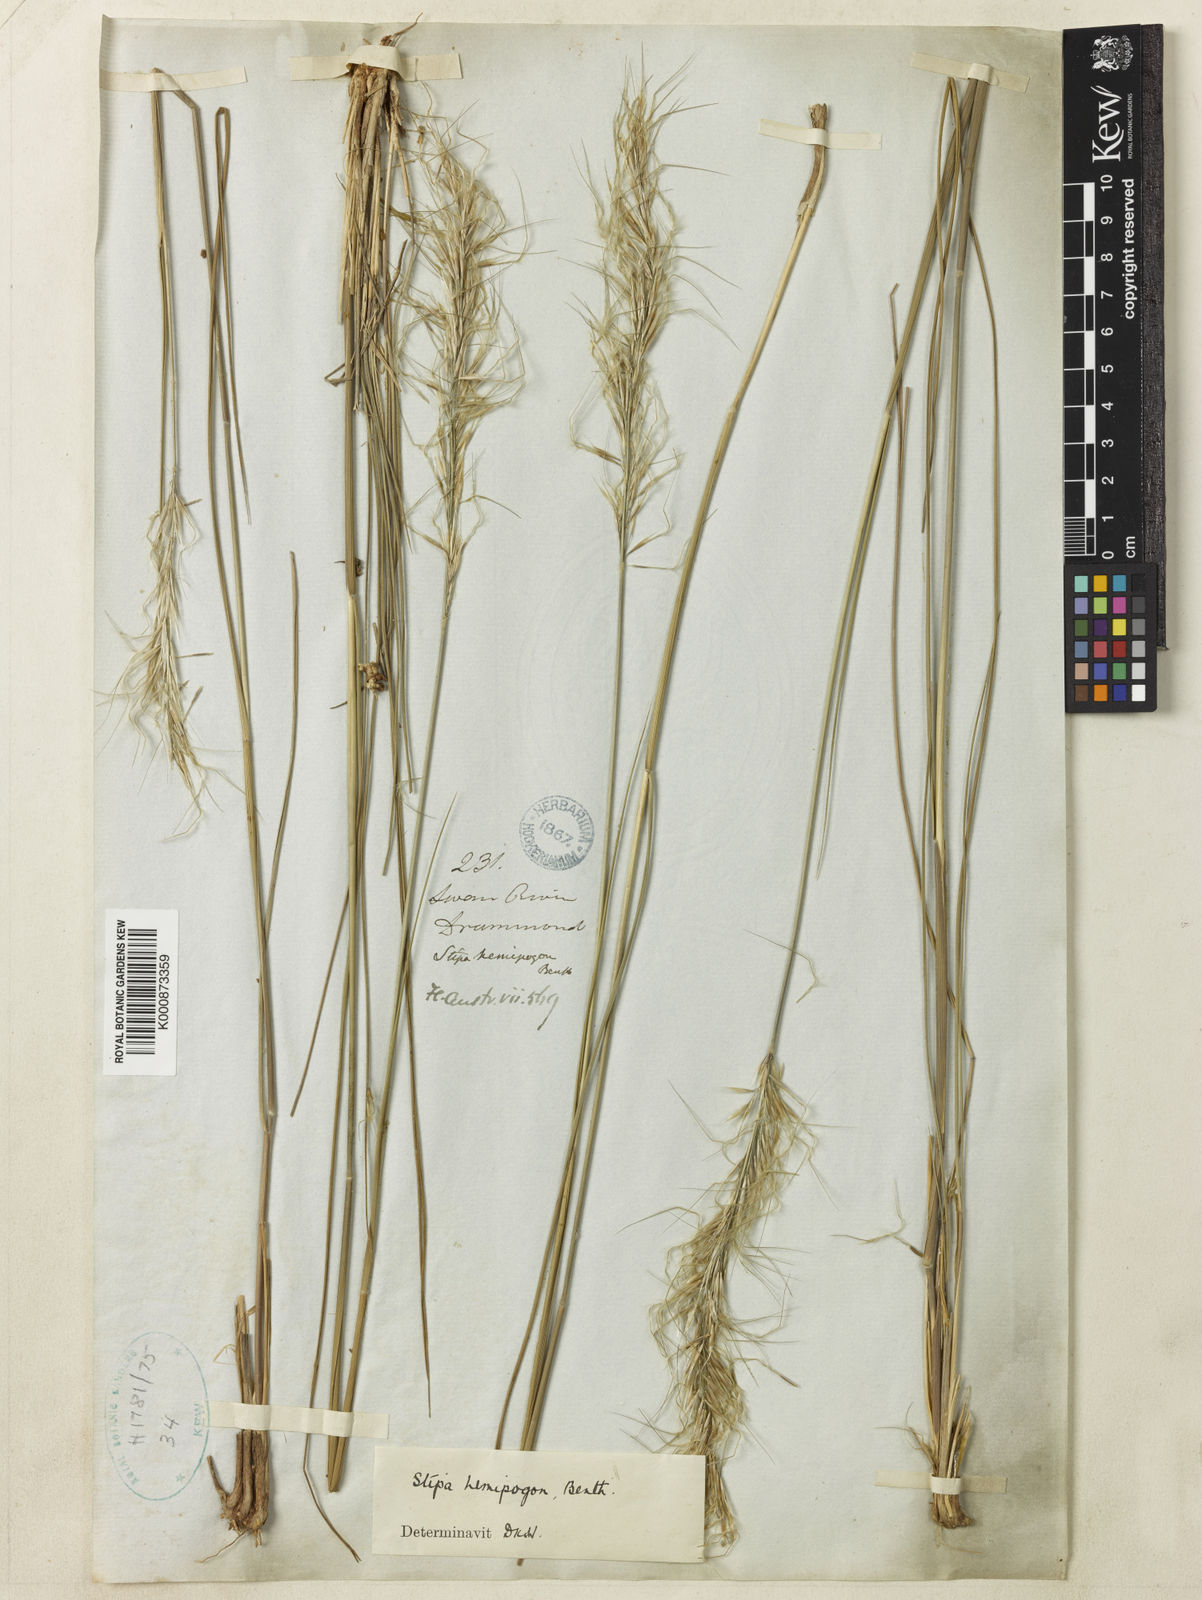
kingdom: Plantae
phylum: Tracheophyta
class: Liliopsida
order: Poales
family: Poaceae
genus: Austrostipa
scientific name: Austrostipa hemipogon
